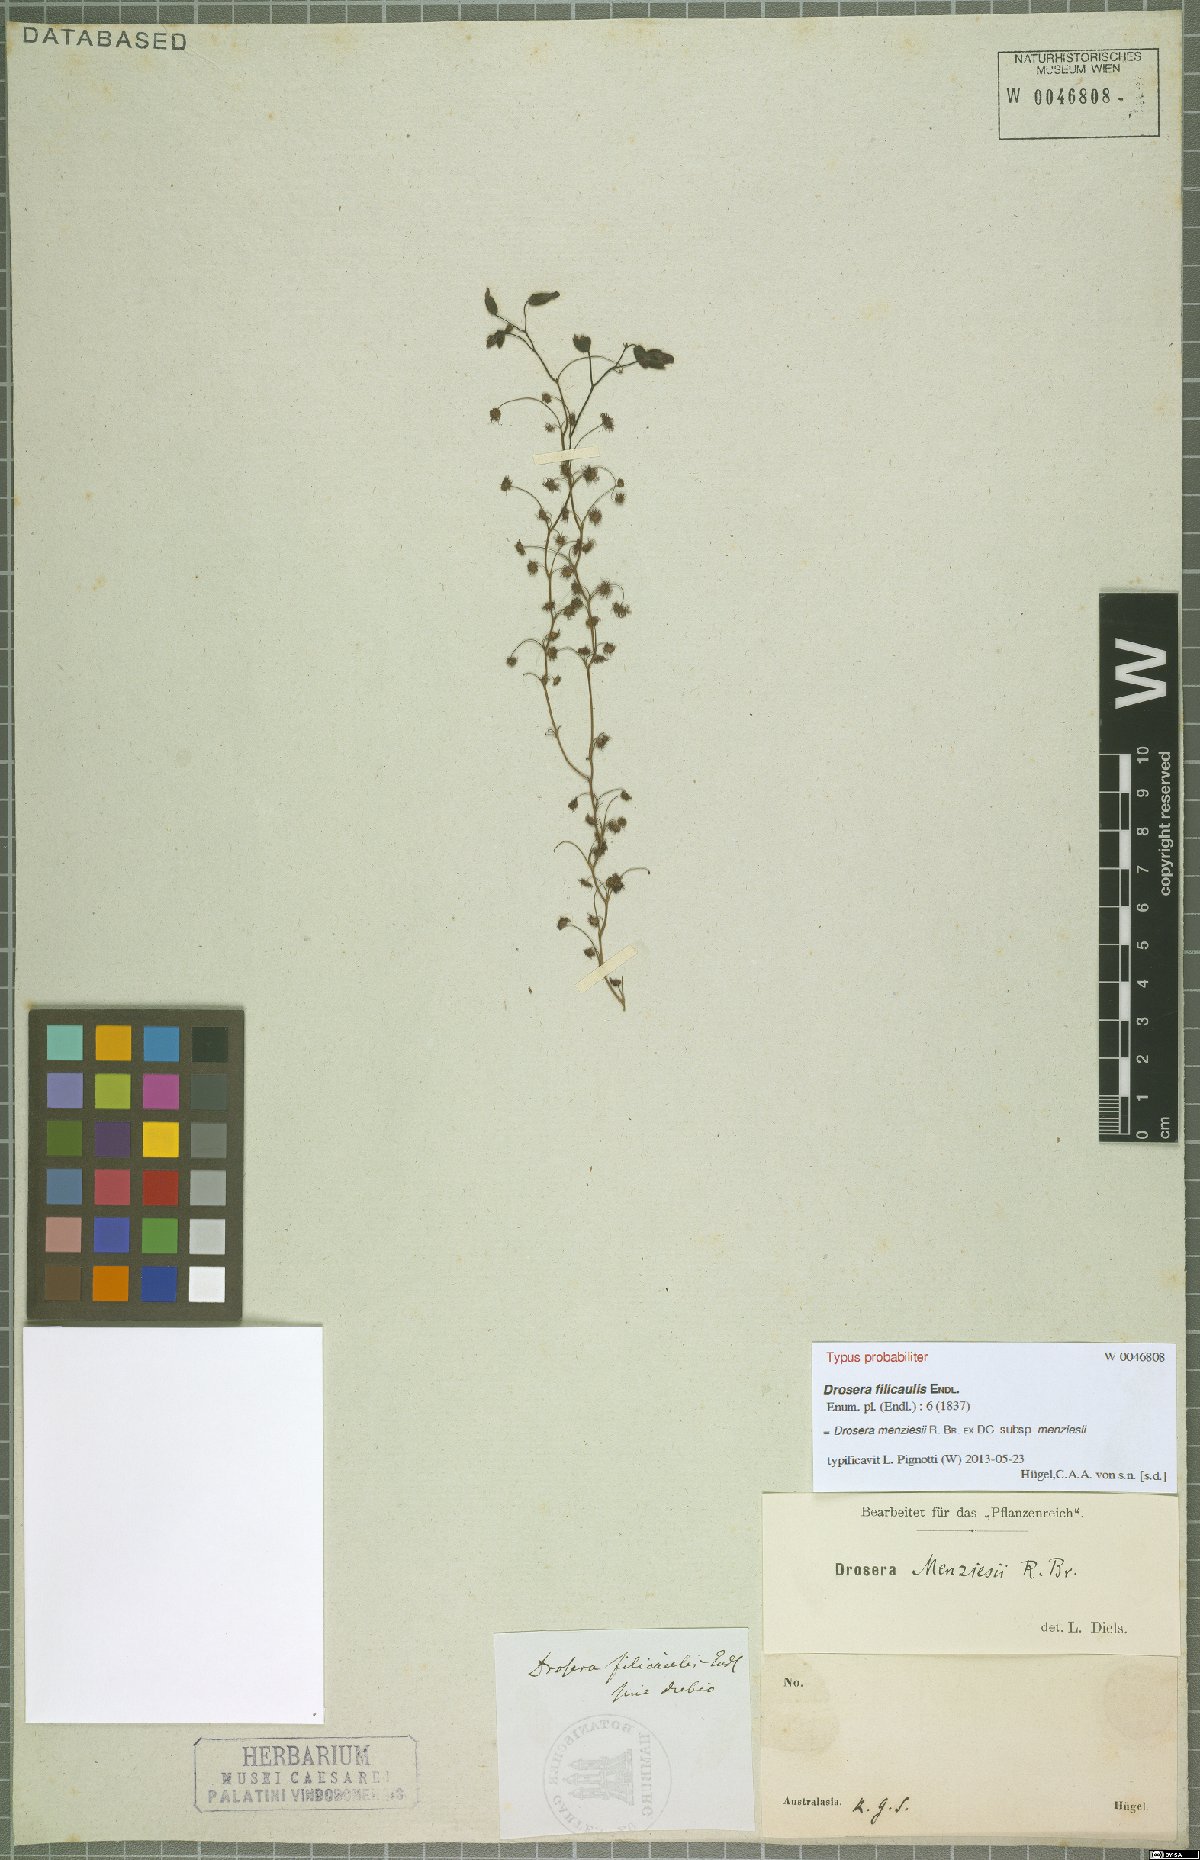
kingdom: Plantae
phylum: Tracheophyta
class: Magnoliopsida
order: Caryophyllales
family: Droseraceae
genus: Drosera
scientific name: Drosera menziesii
